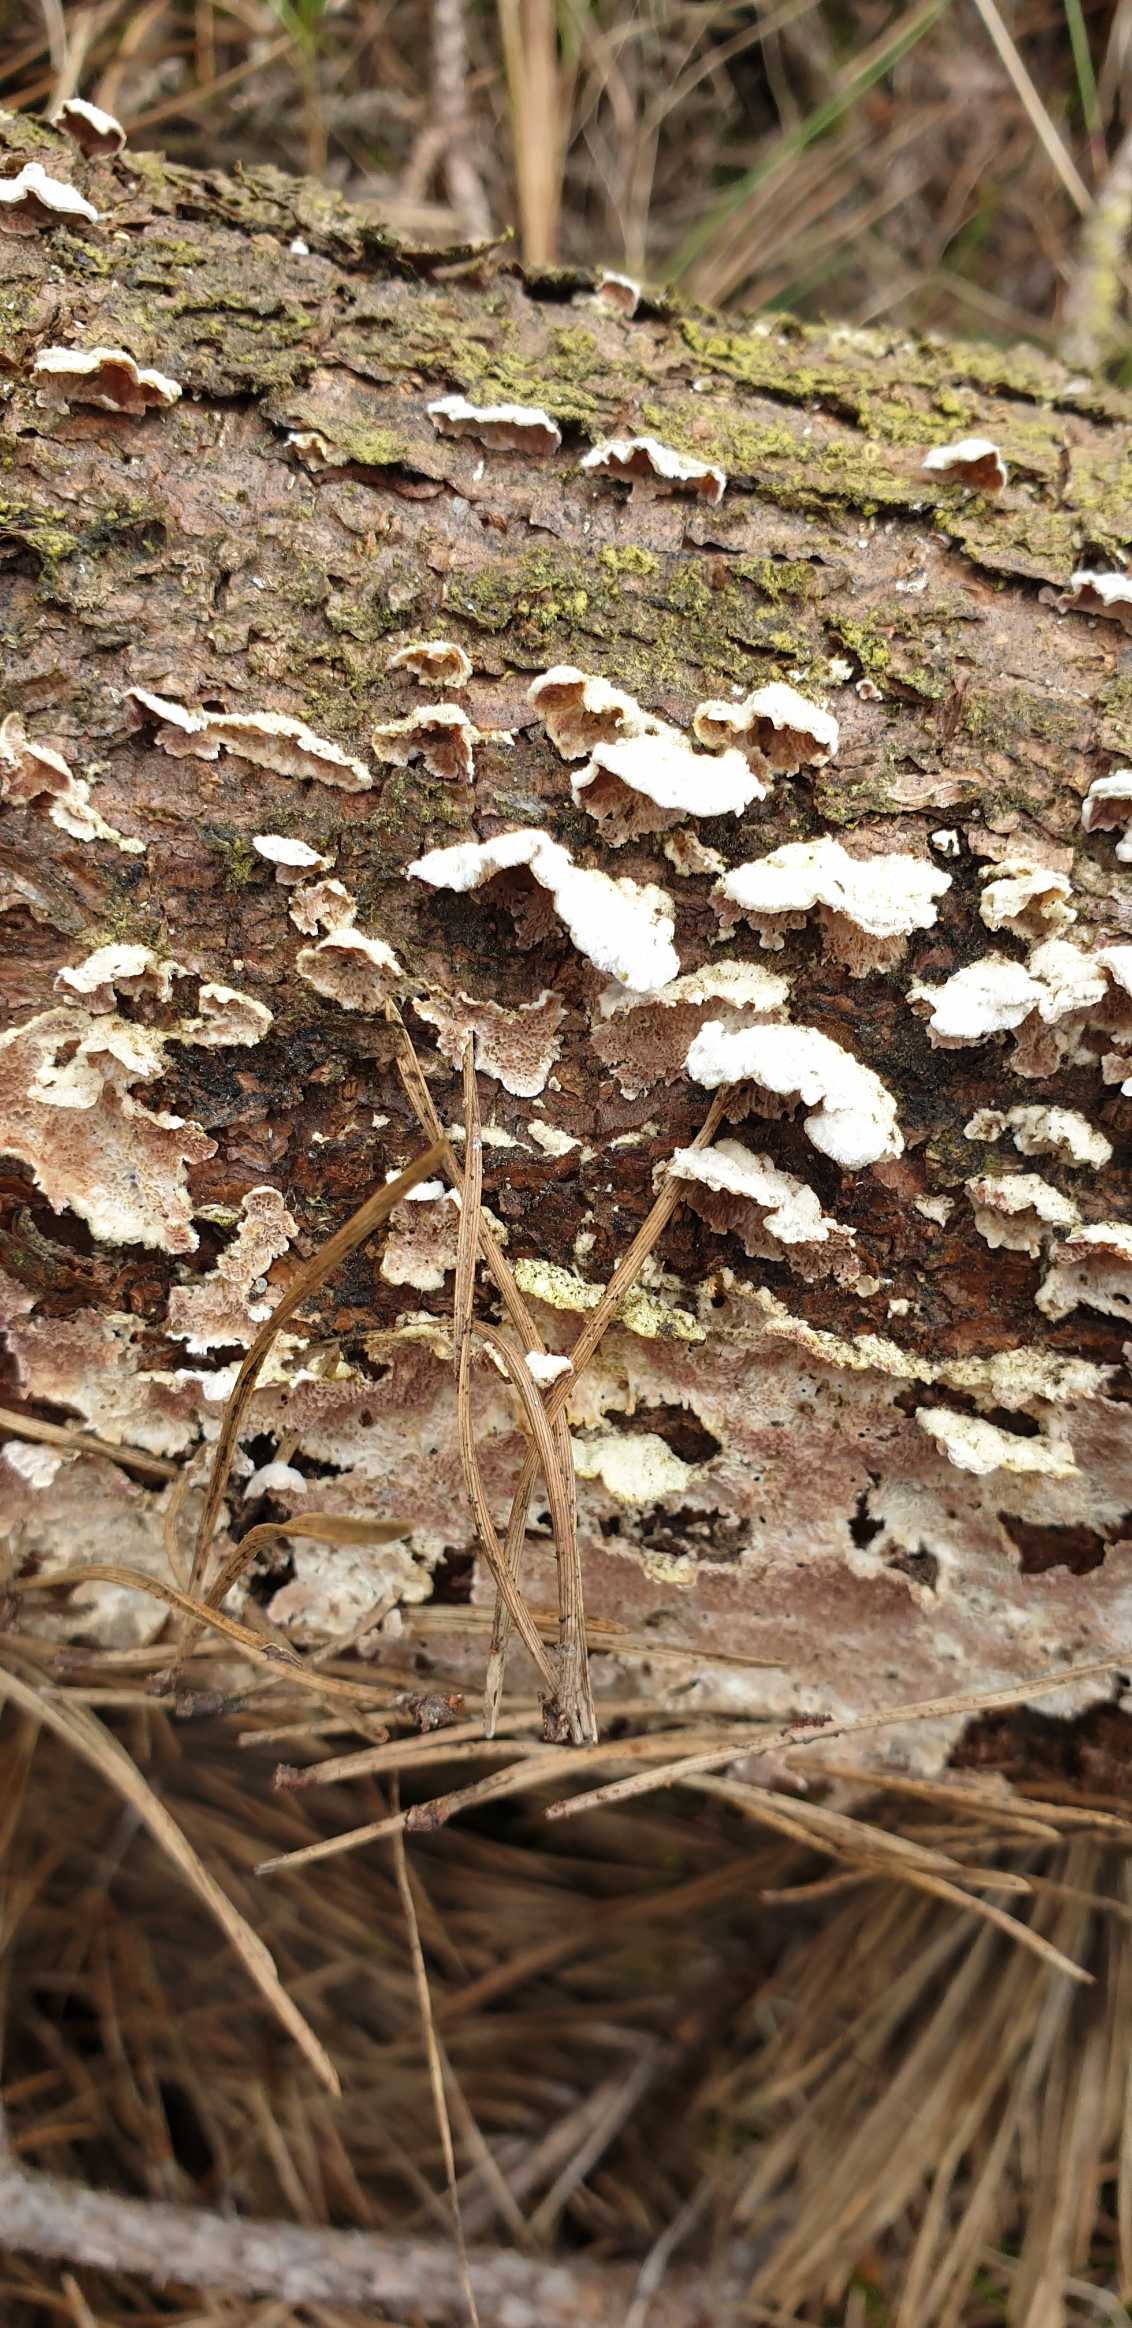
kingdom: Fungi
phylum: Basidiomycota
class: Agaricomycetes
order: Hymenochaetales
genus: Trichaptum
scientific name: Trichaptum fuscoviolaceum
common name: Tandet violporesvamp
